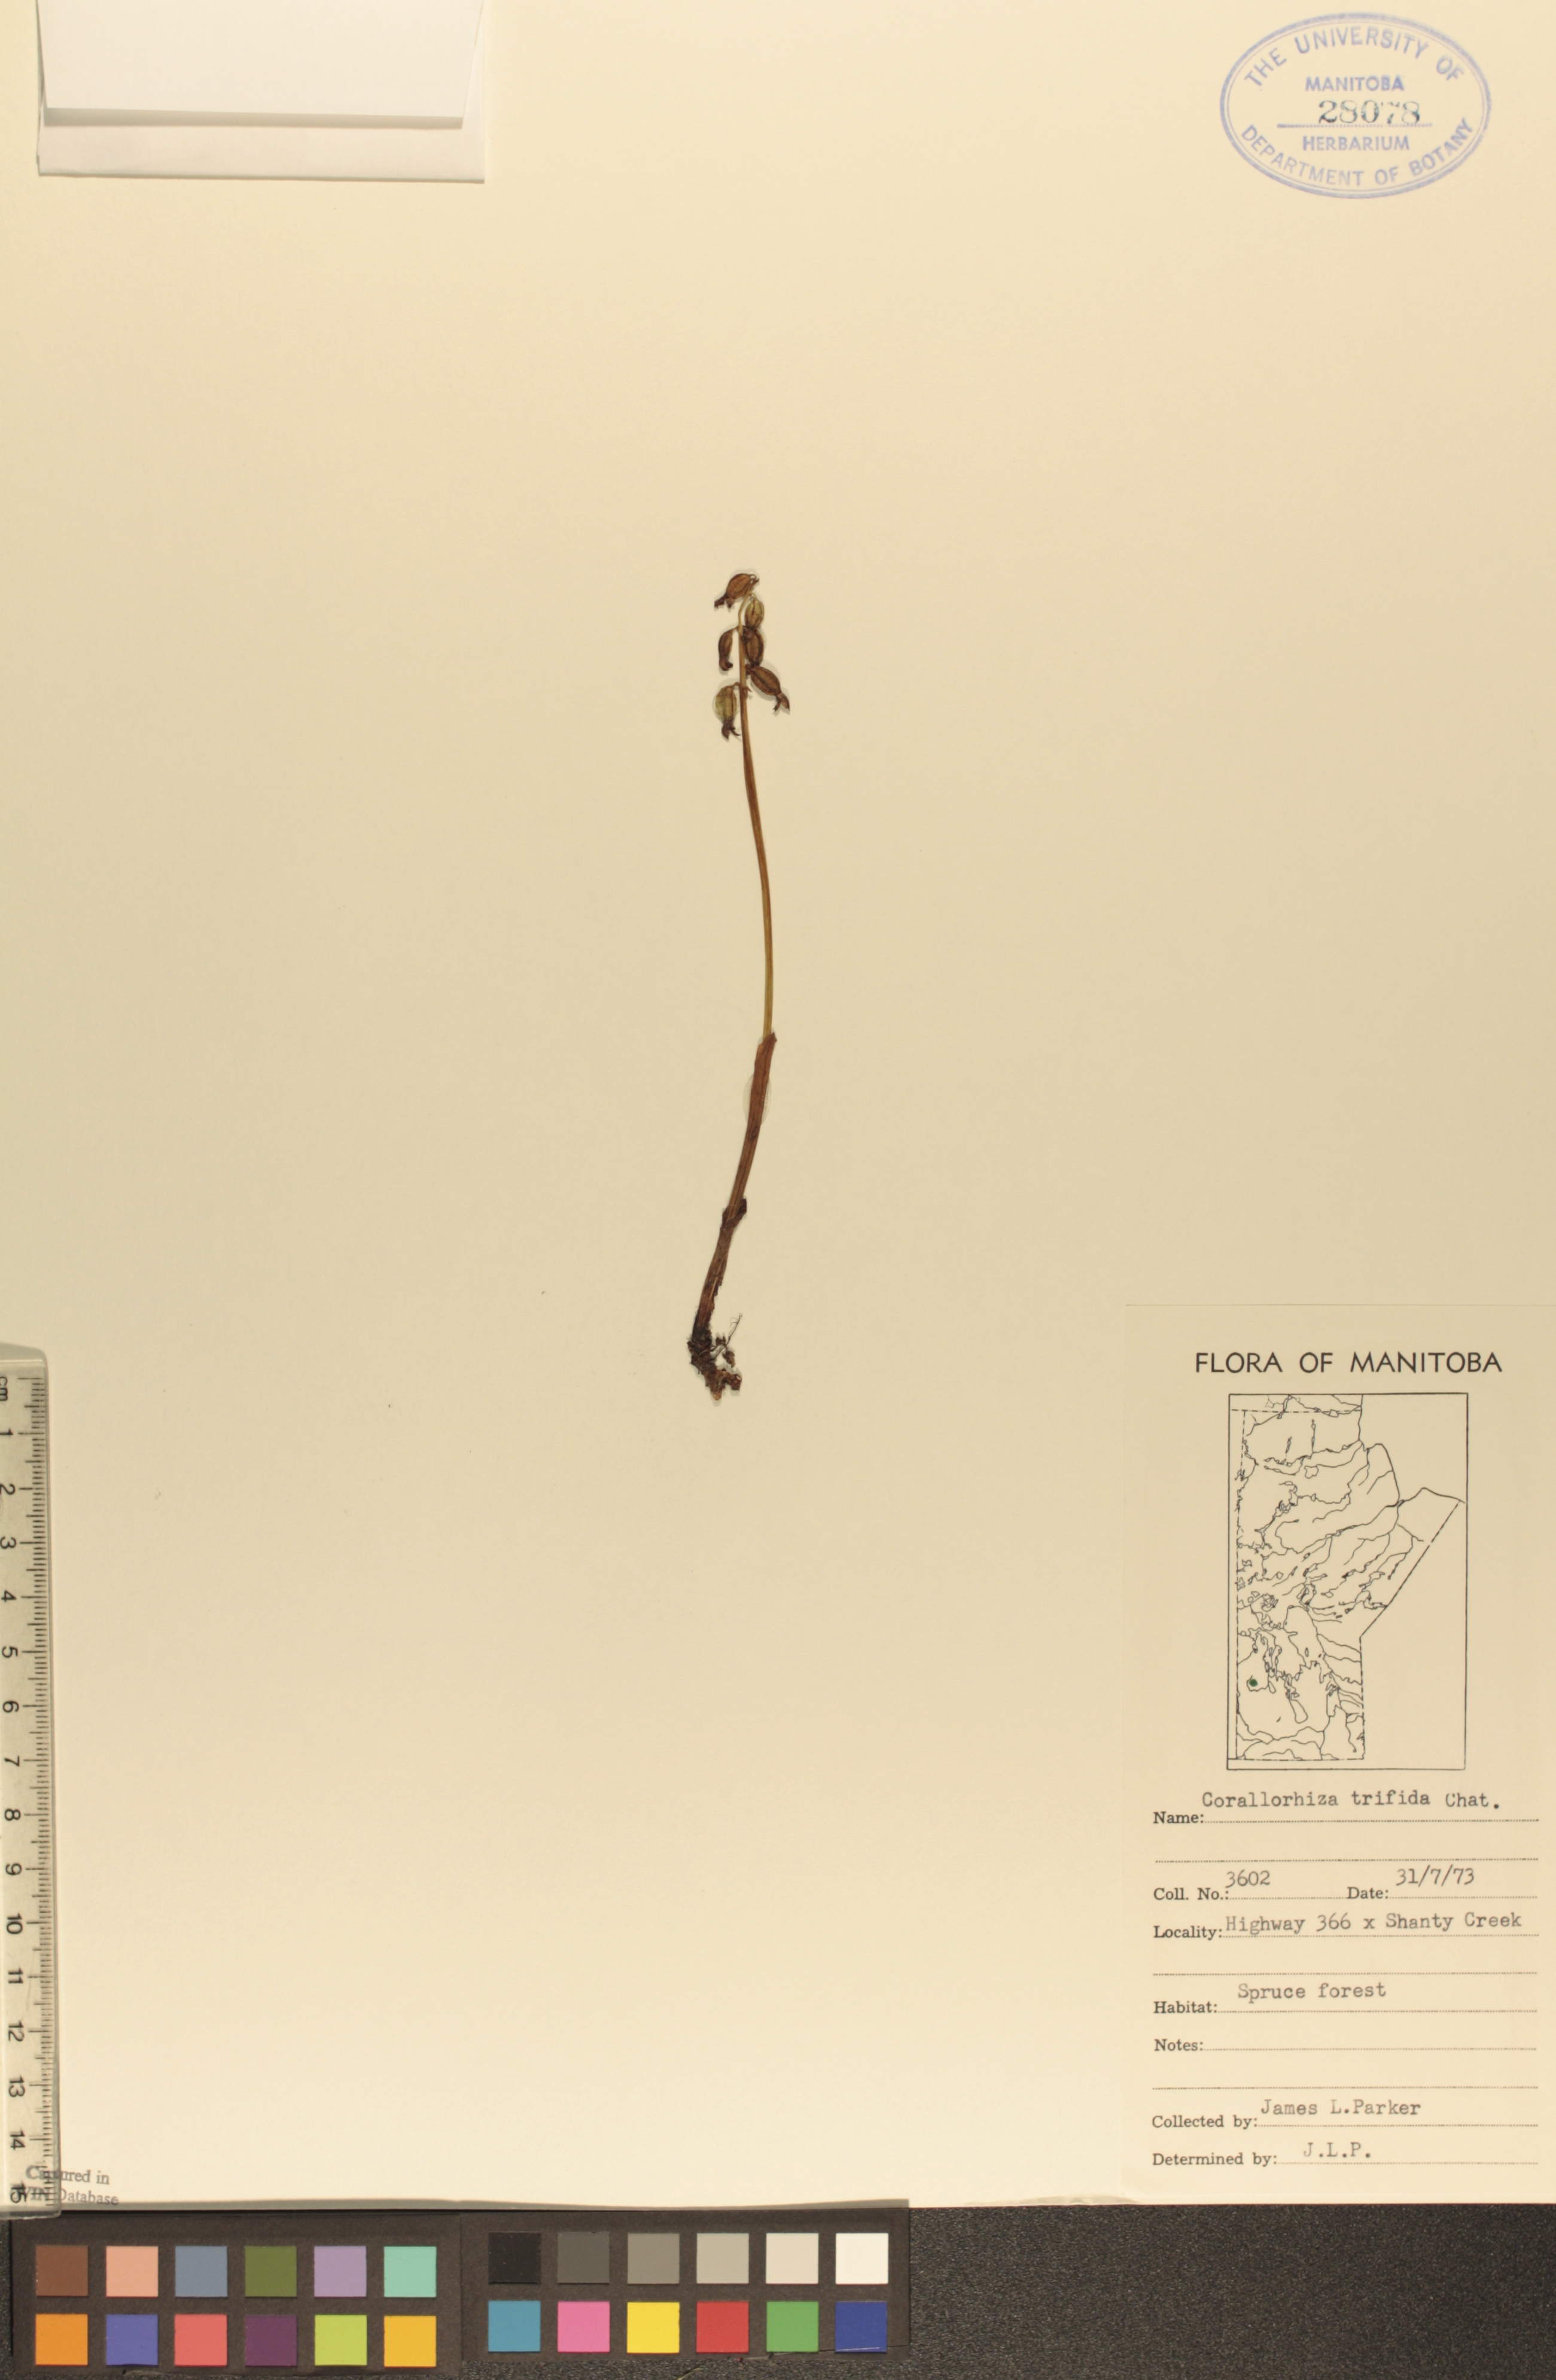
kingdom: Plantae
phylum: Tracheophyta
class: Liliopsida
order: Asparagales
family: Orchidaceae
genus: Corallorhiza
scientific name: Corallorhiza trifida
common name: Yellow coralroot
